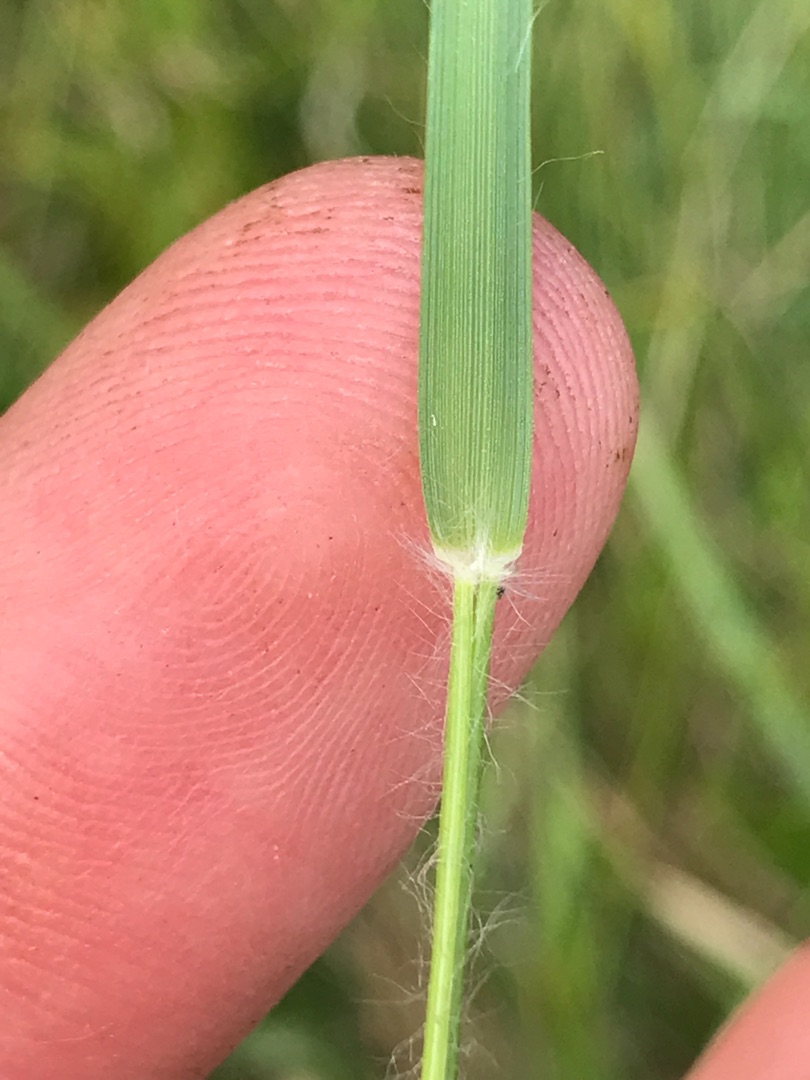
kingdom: Plantae
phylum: Tracheophyta
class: Liliopsida
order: Poales
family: Poaceae
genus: Danthonia
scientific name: Danthonia decumbens
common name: Tandbælg
